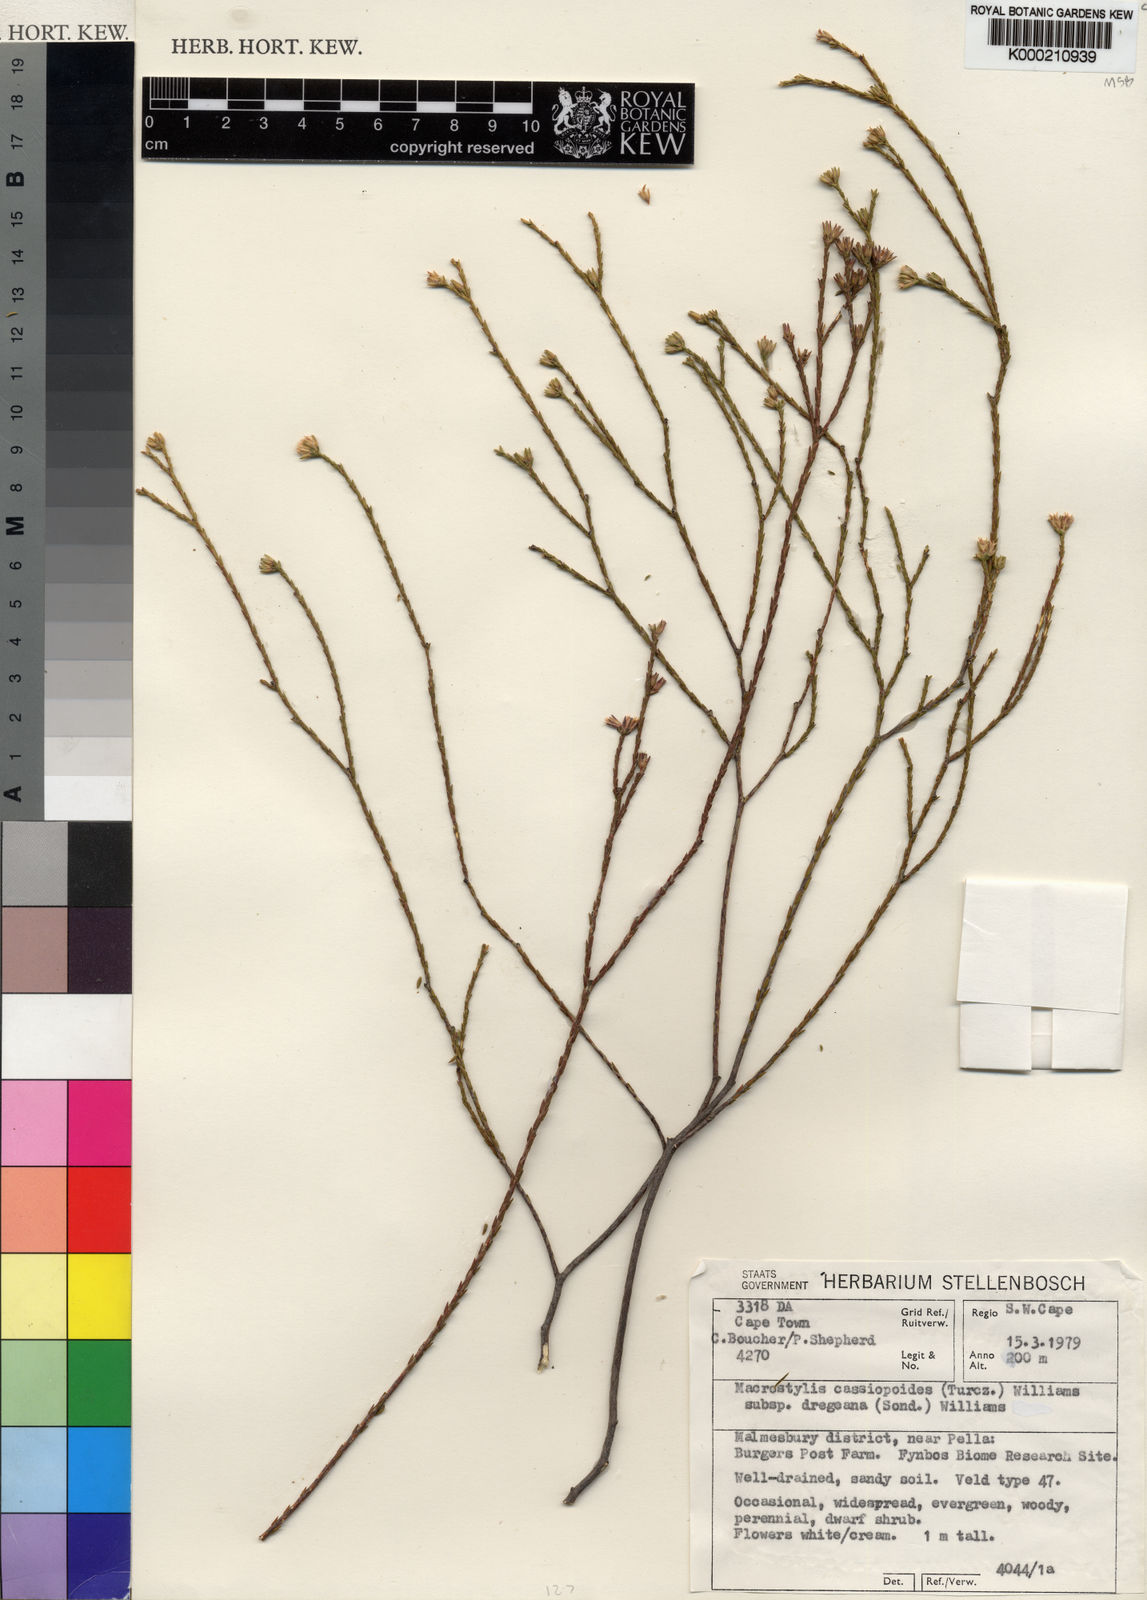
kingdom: Plantae
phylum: Tracheophyta
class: Magnoliopsida
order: Sapindales
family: Rutaceae
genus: Macrostylis
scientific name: Macrostylis cassiopoides
